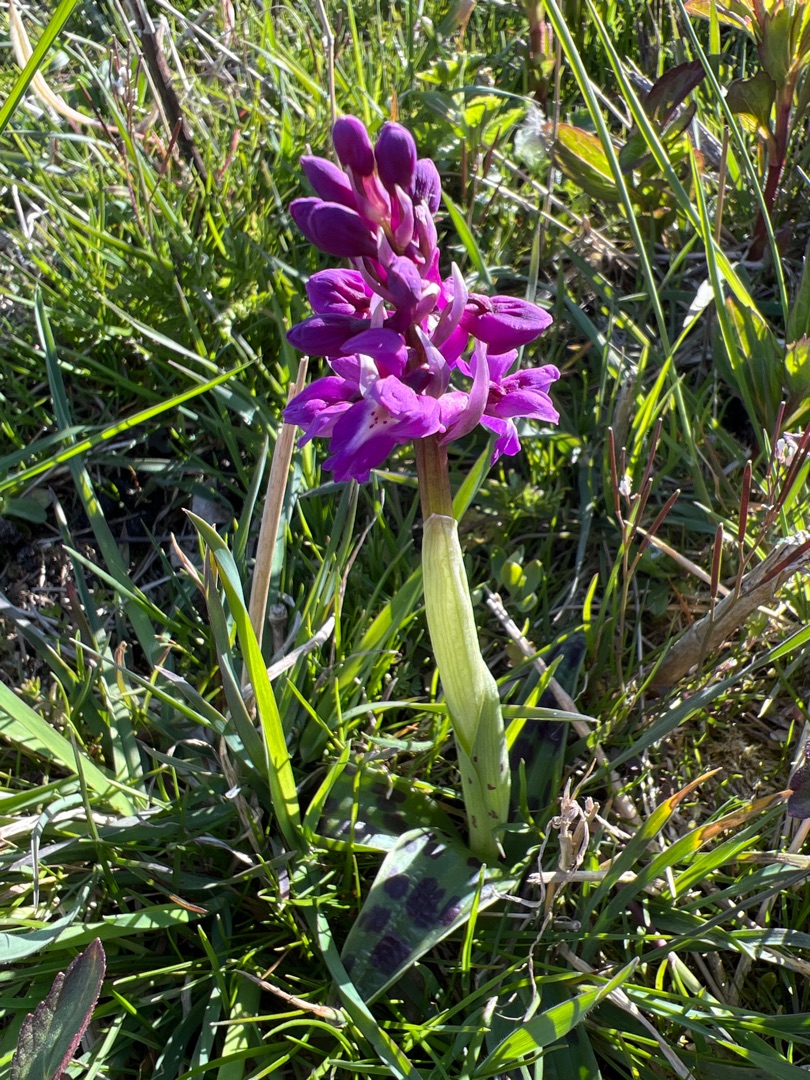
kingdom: Plantae
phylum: Tracheophyta
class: Liliopsida
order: Asparagales
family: Orchidaceae
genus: Orchis
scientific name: Orchis mascula
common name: Tyndakset gøgeurt
